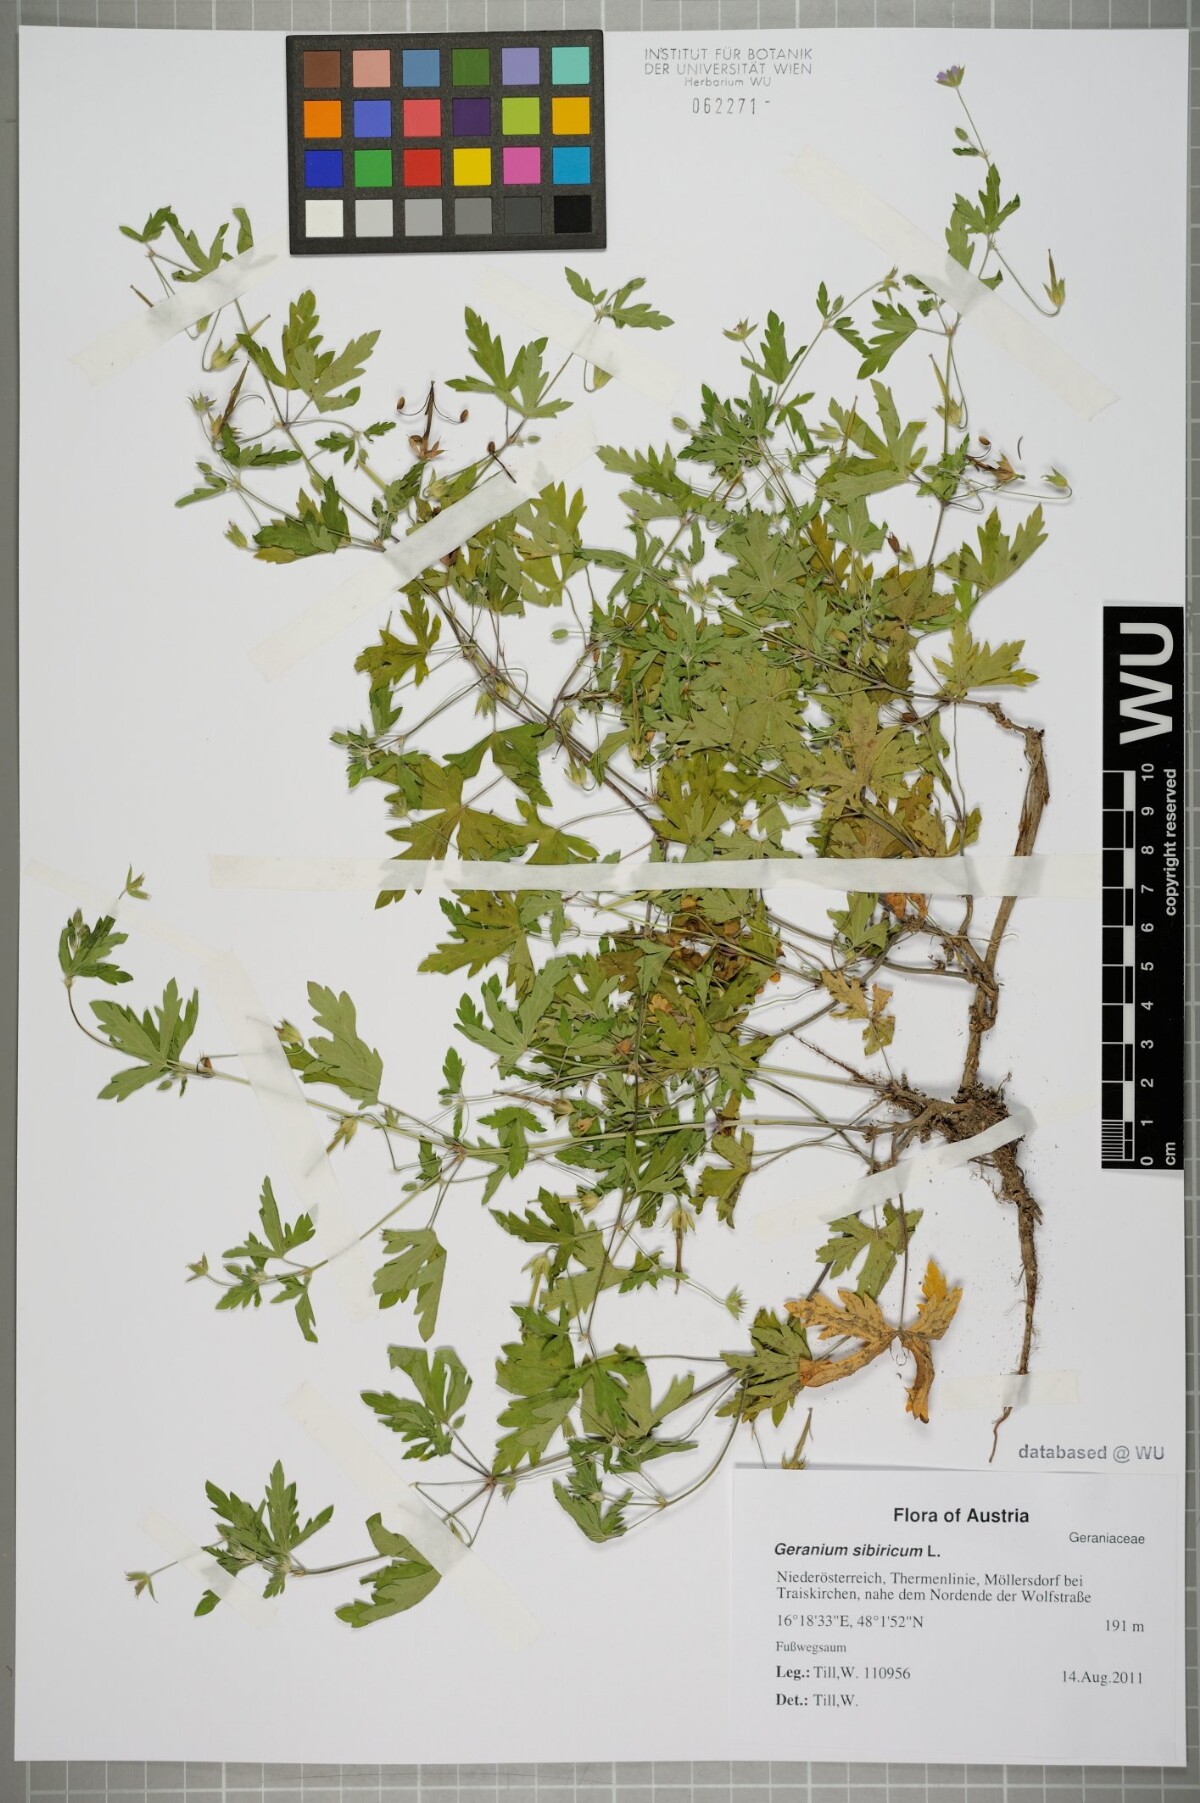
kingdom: Plantae
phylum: Tracheophyta
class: Magnoliopsida
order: Geraniales
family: Geraniaceae
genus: Geranium
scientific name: Geranium sibiricum
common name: Siberian crane's-bill
